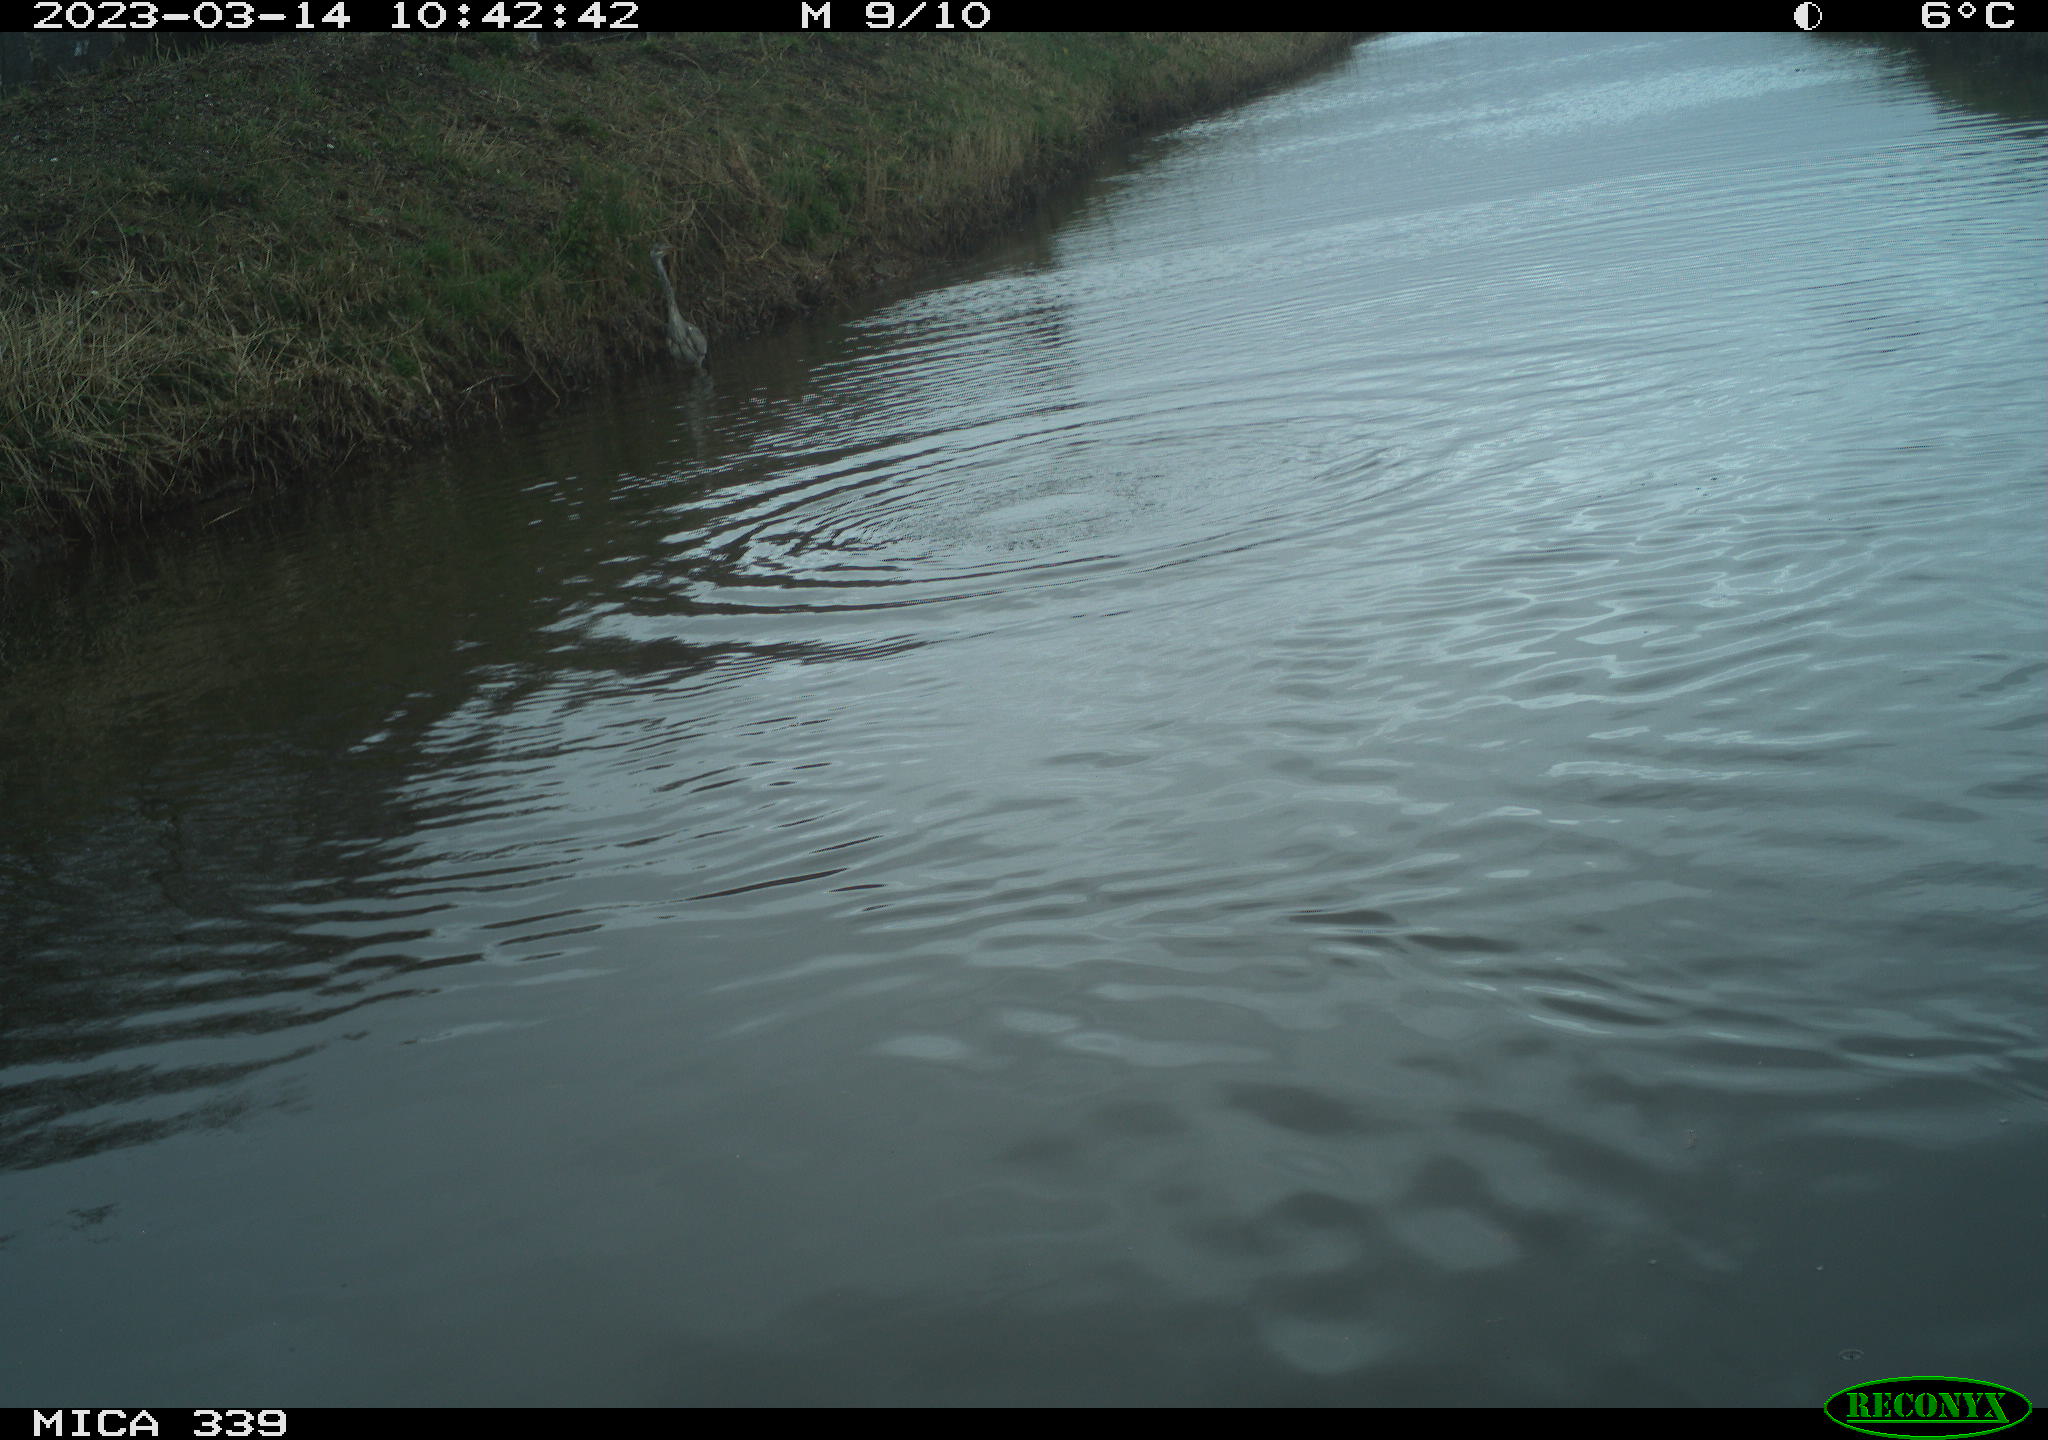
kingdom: Animalia
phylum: Chordata
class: Aves
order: Pelecaniformes
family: Ardeidae
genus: Ardea
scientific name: Ardea cinerea
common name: Grey heron
